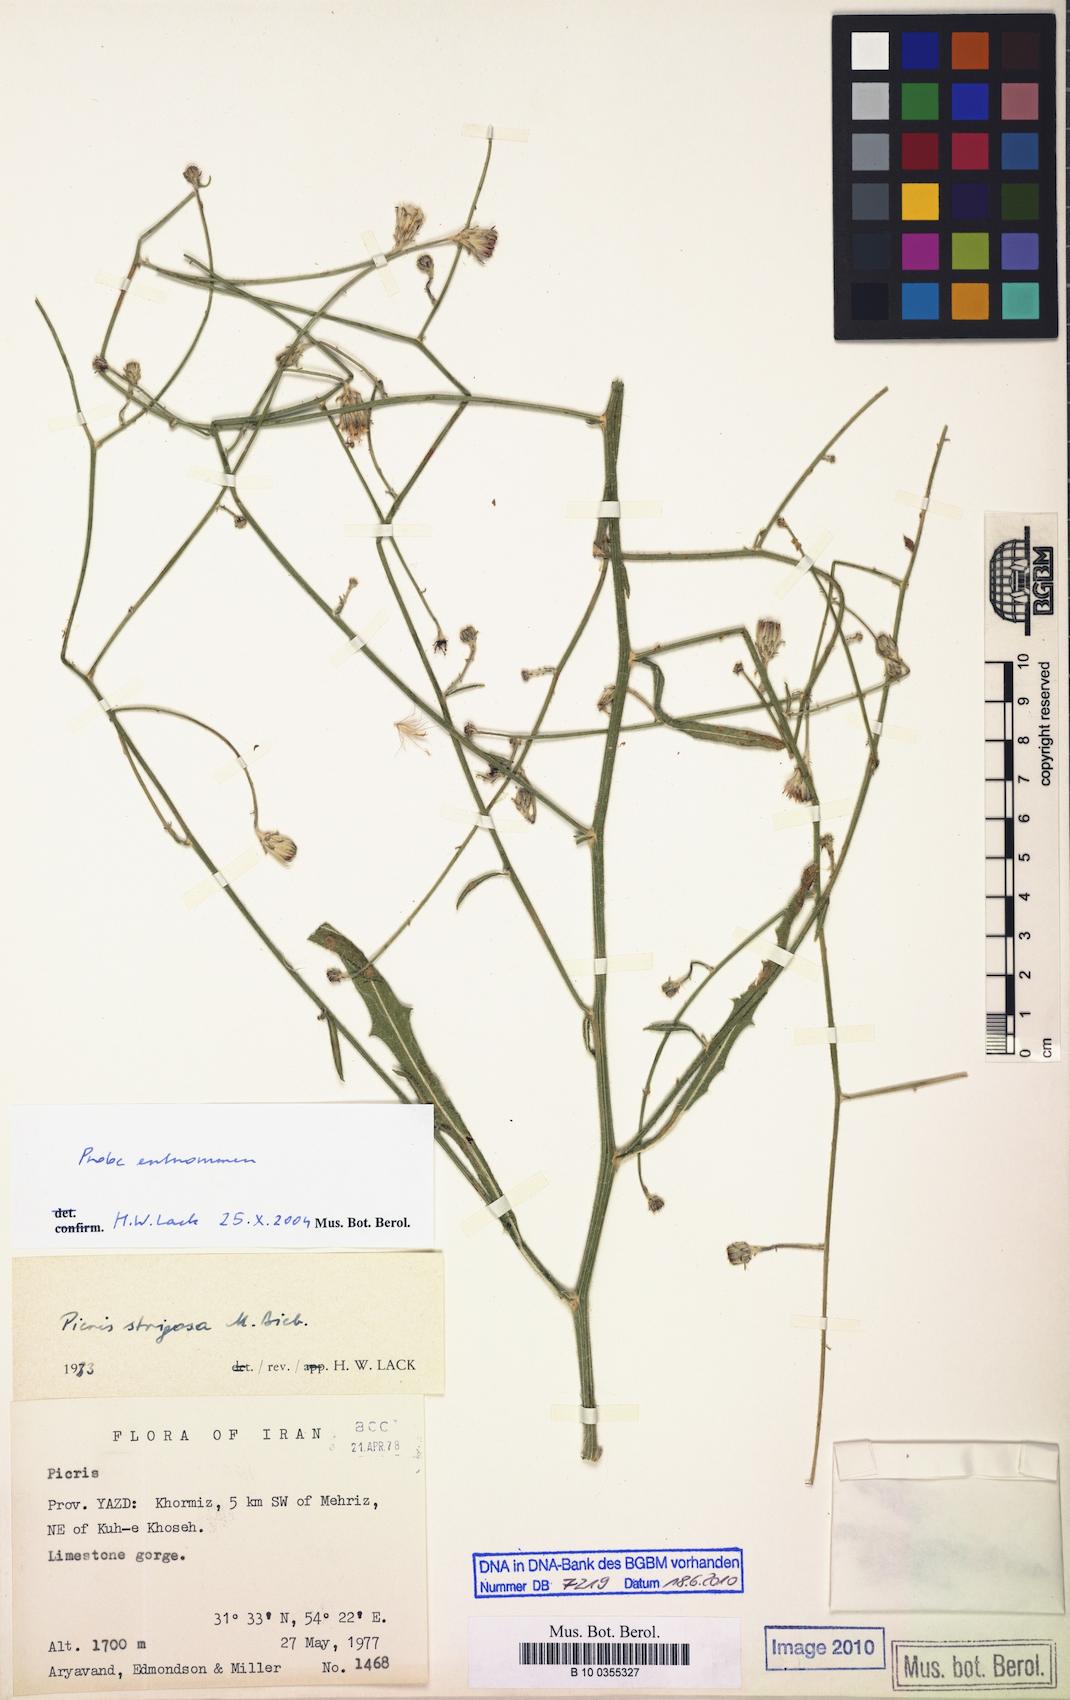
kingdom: Plantae
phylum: Tracheophyta
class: Magnoliopsida
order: Asterales
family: Asteraceae
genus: Picris
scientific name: Picris strigosa
